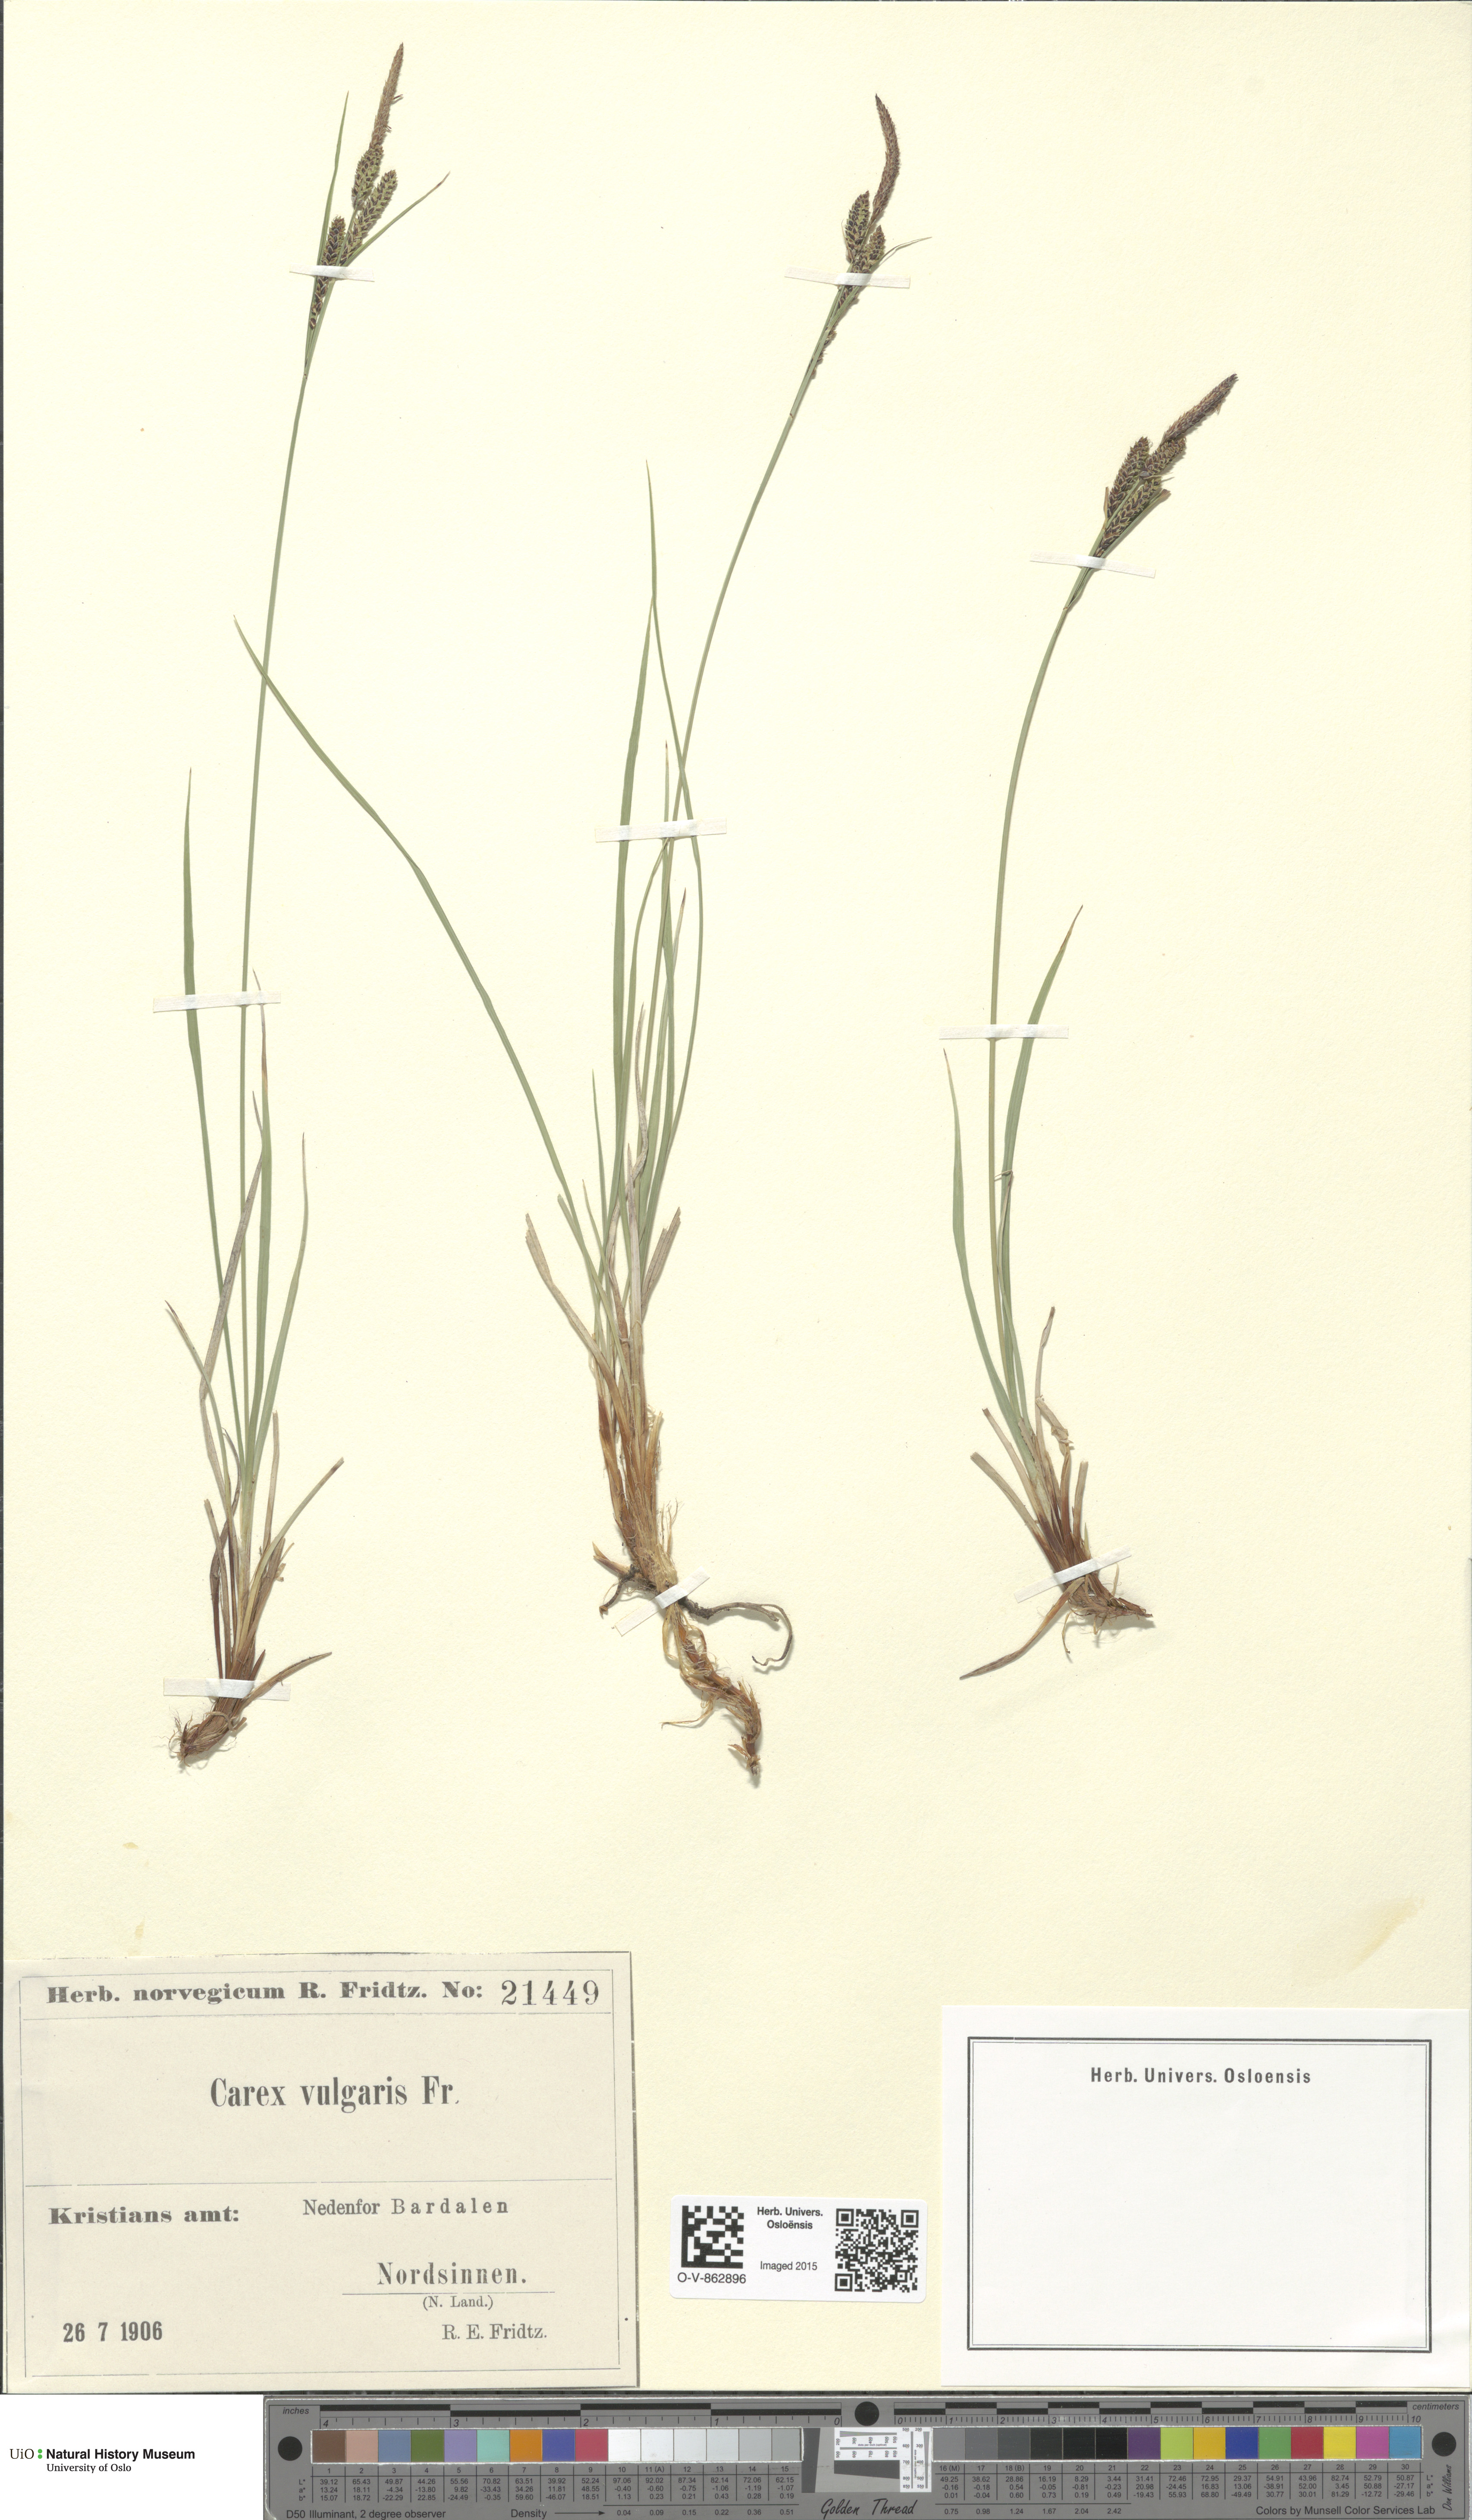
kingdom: Plantae
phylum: Tracheophyta
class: Liliopsida
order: Poales
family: Cyperaceae
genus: Carex
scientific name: Carex nigra
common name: Common sedge
